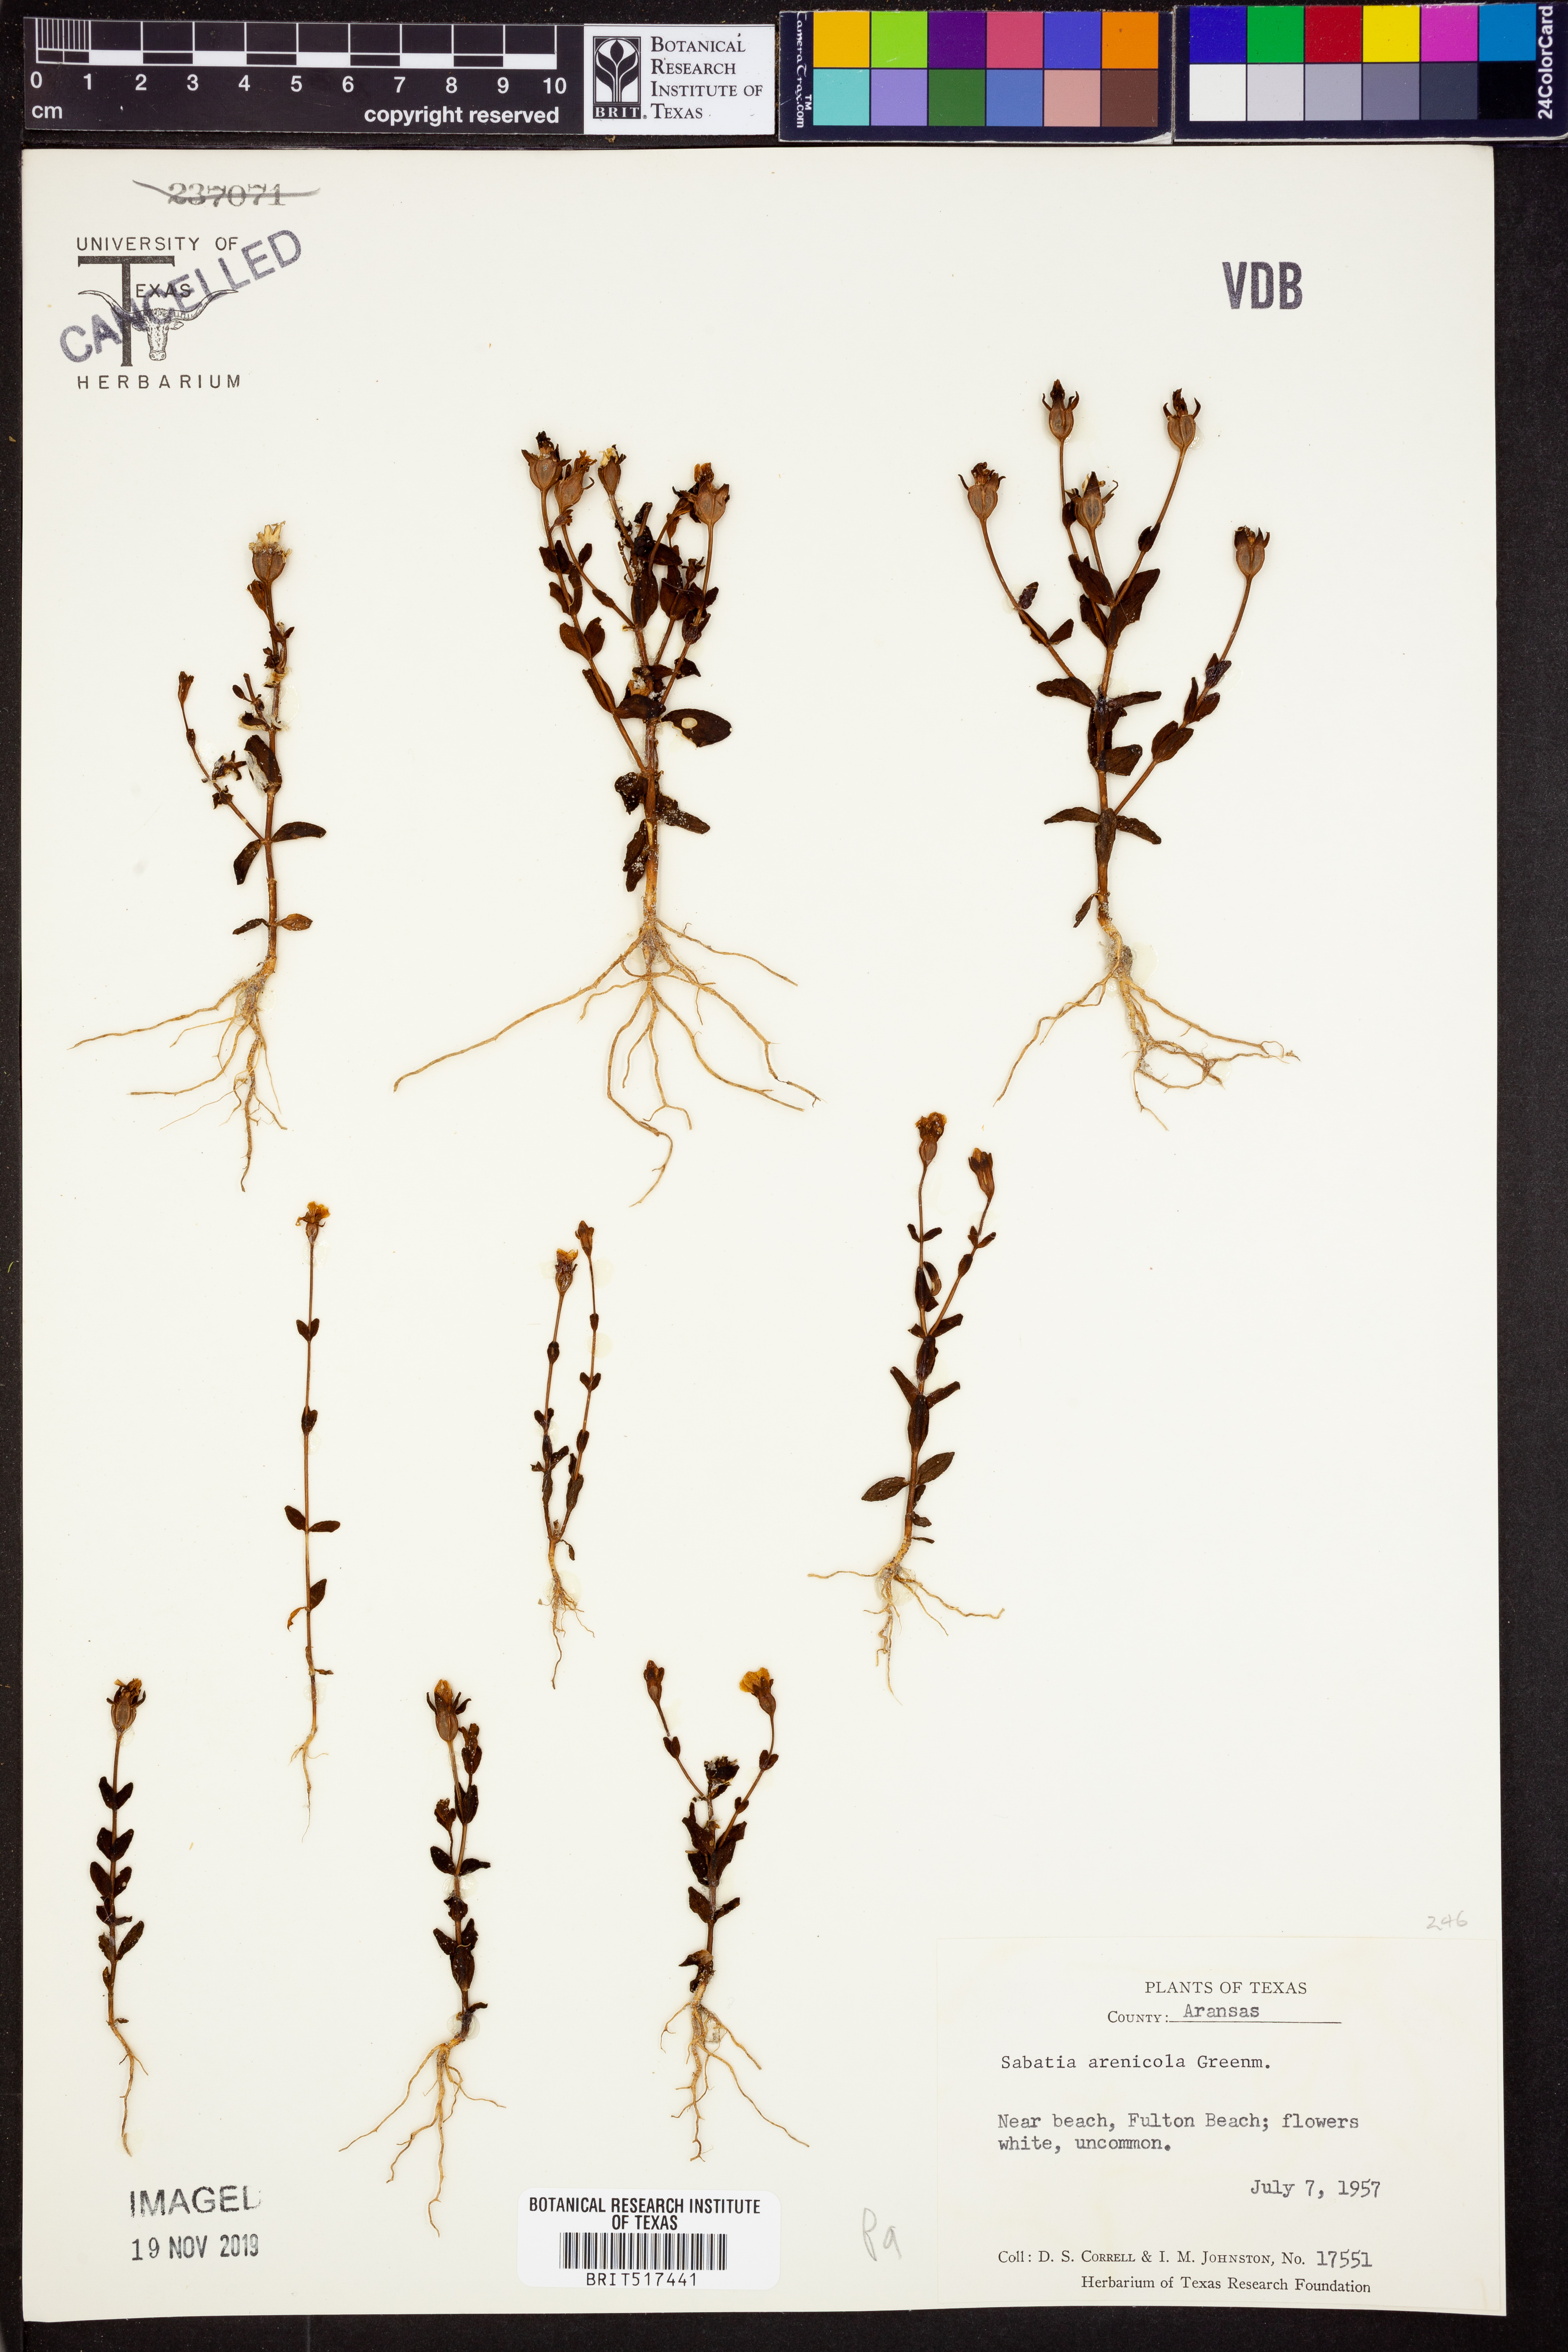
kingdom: Plantae
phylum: Tracheophyta
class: Magnoliopsida
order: Gentianales
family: Gentianaceae
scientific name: Gentianaceae
